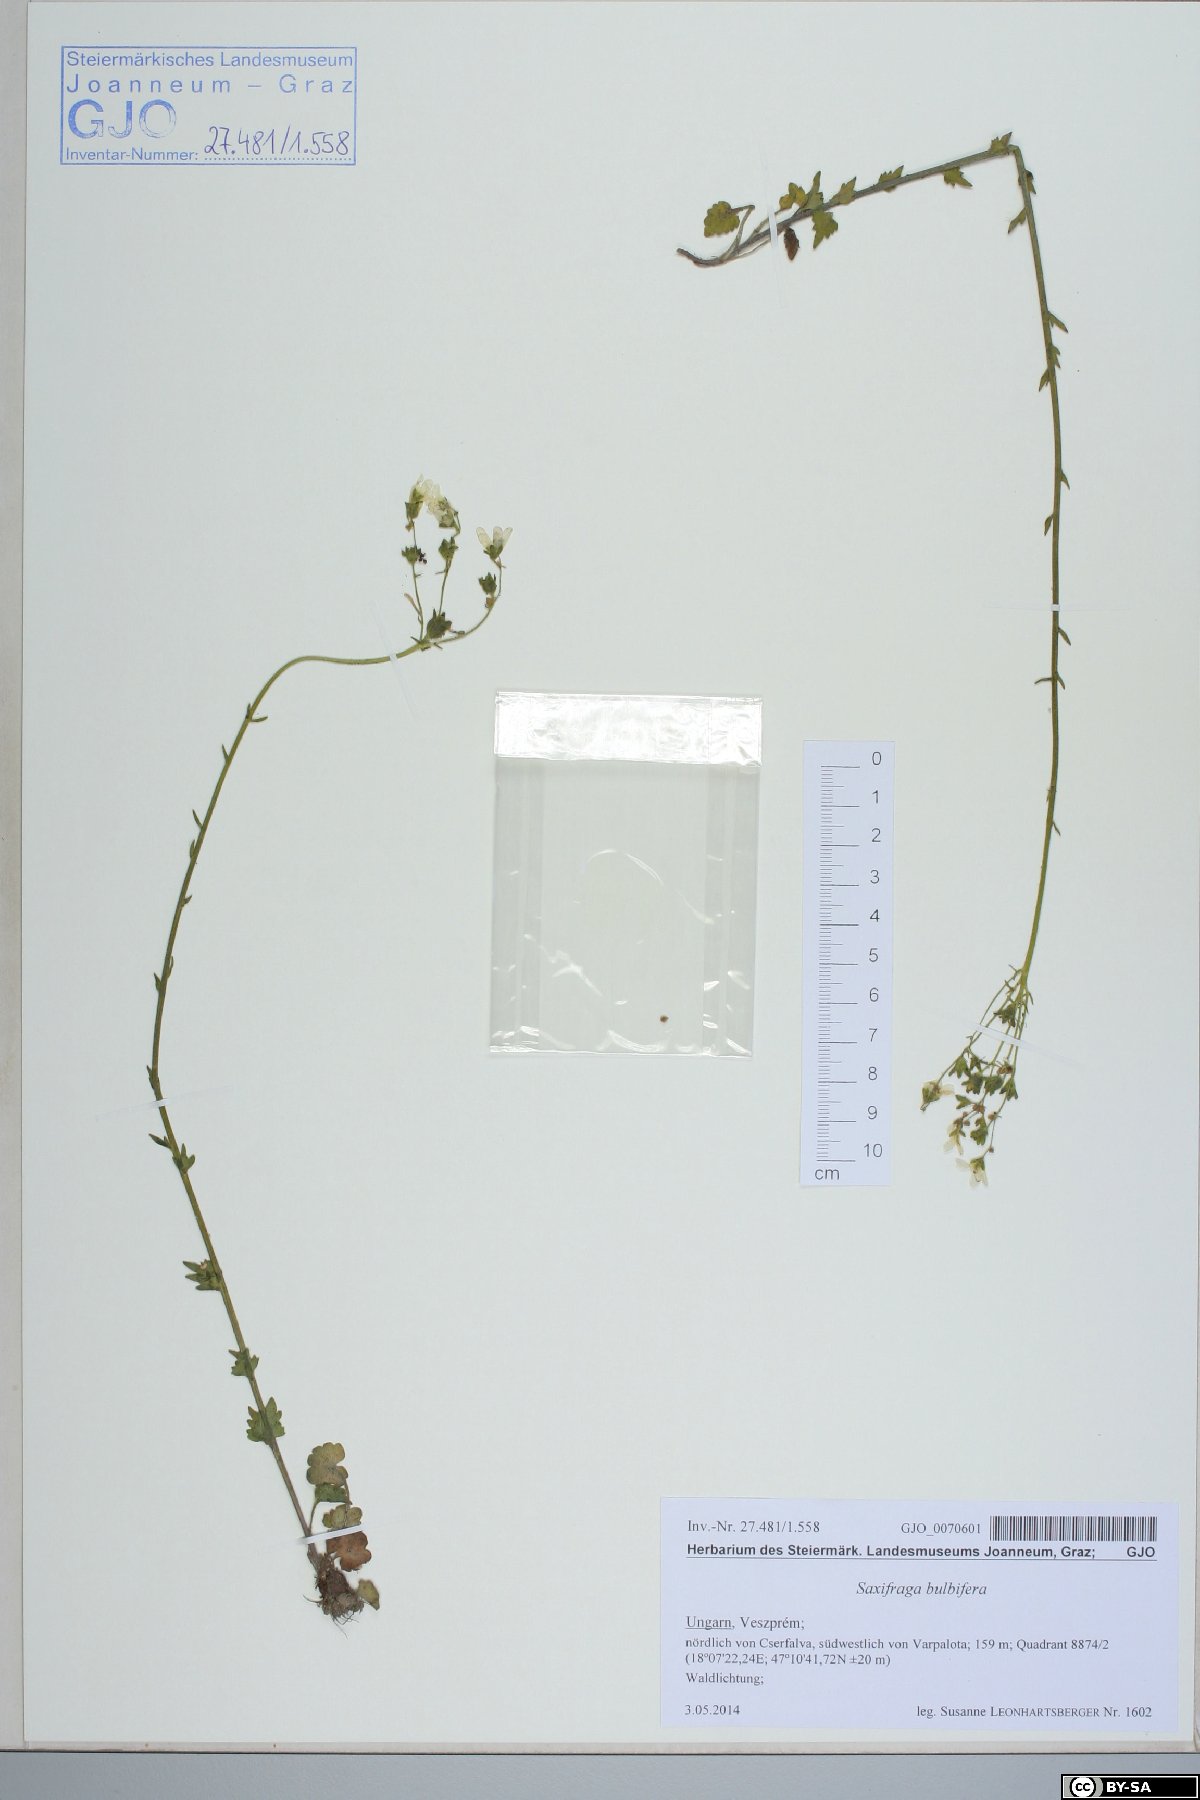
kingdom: Plantae
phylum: Tracheophyta
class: Magnoliopsida
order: Saxifragales
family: Saxifragaceae
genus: Saxifraga
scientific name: Saxifraga bulbifera
